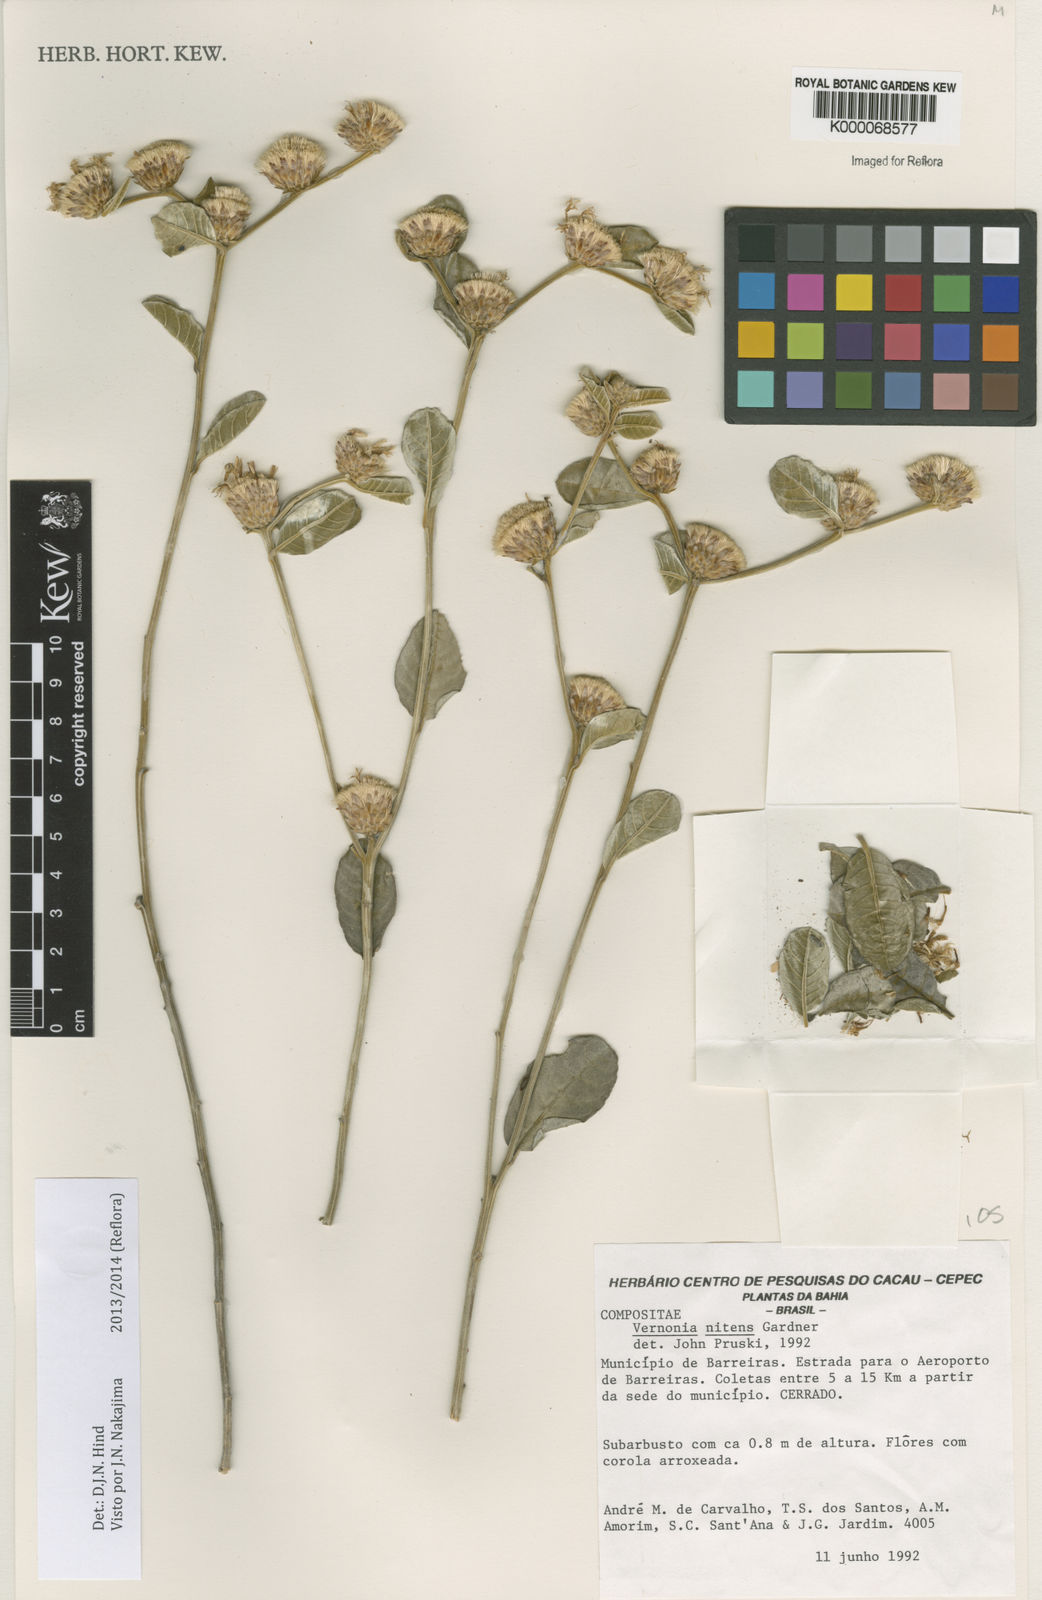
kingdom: Plantae
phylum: Tracheophyta
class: Magnoliopsida
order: Asterales
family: Asteraceae
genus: Lepidaploa
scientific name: Lepidaploa nitens
